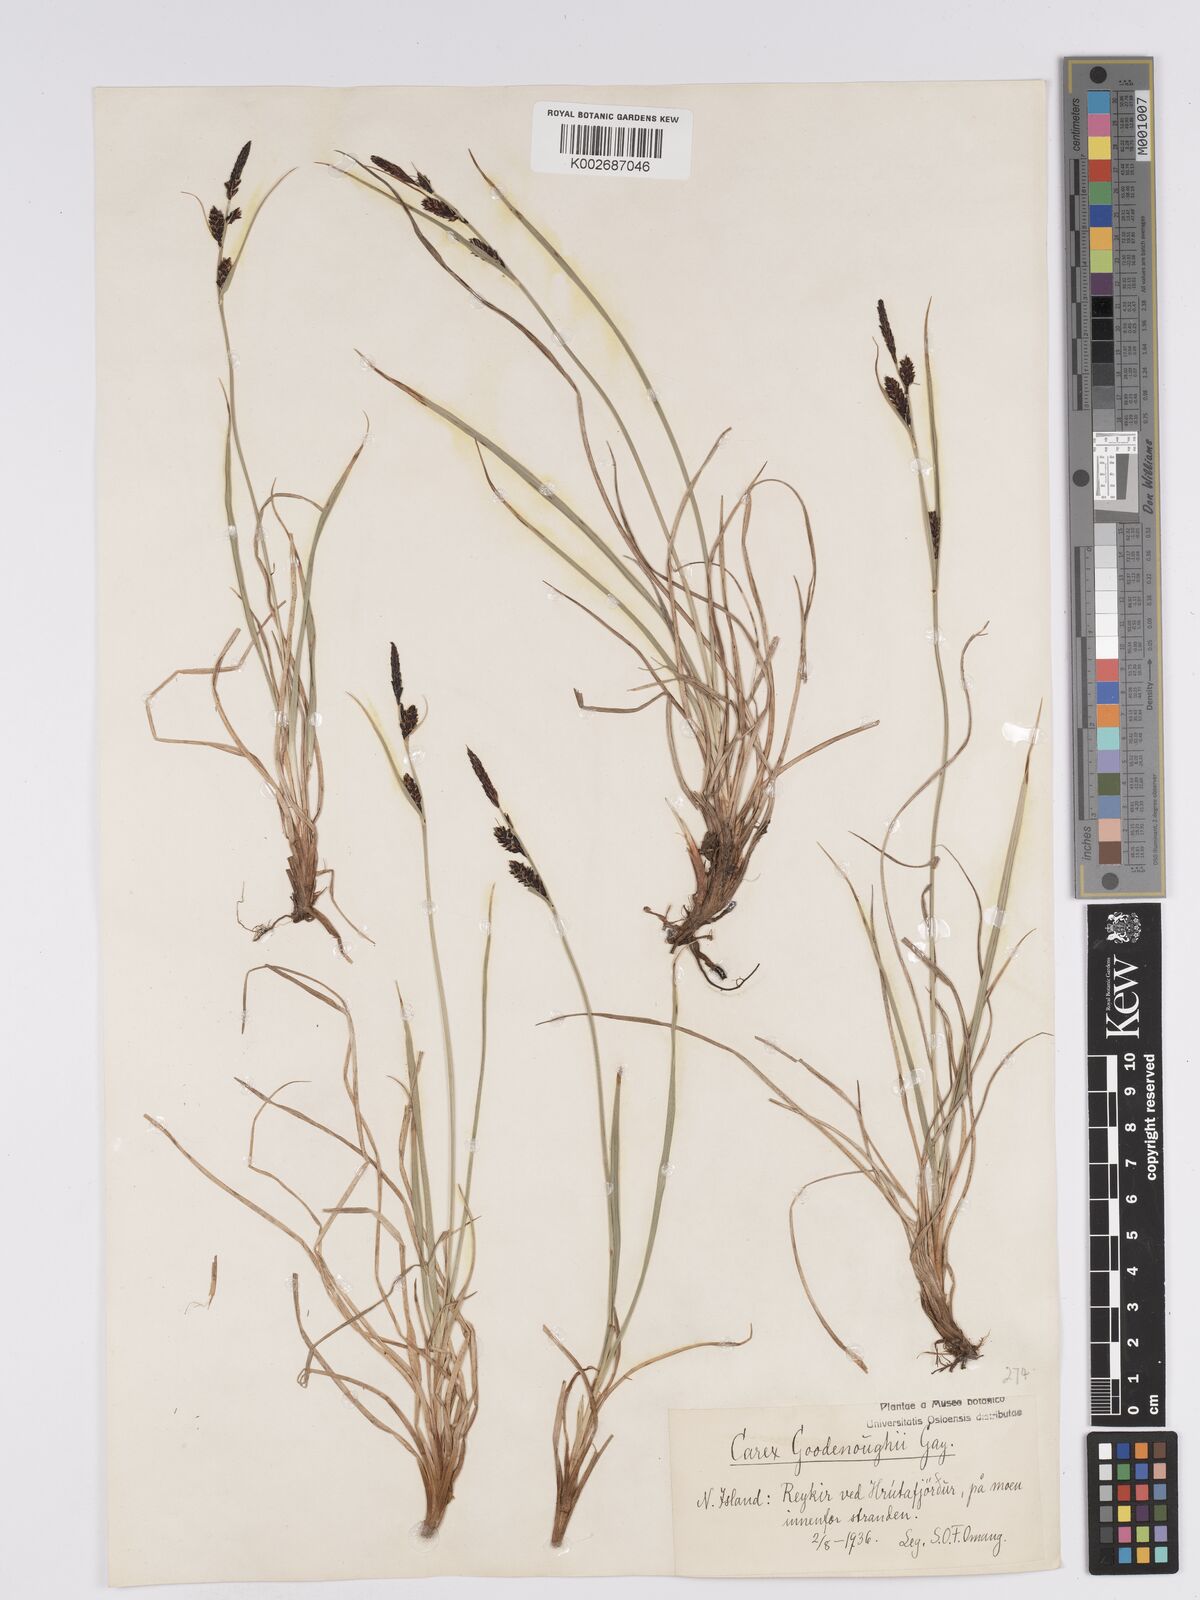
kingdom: Plantae
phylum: Tracheophyta
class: Liliopsida
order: Poales
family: Cyperaceae
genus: Carex
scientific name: Carex nigra
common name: Common sedge
